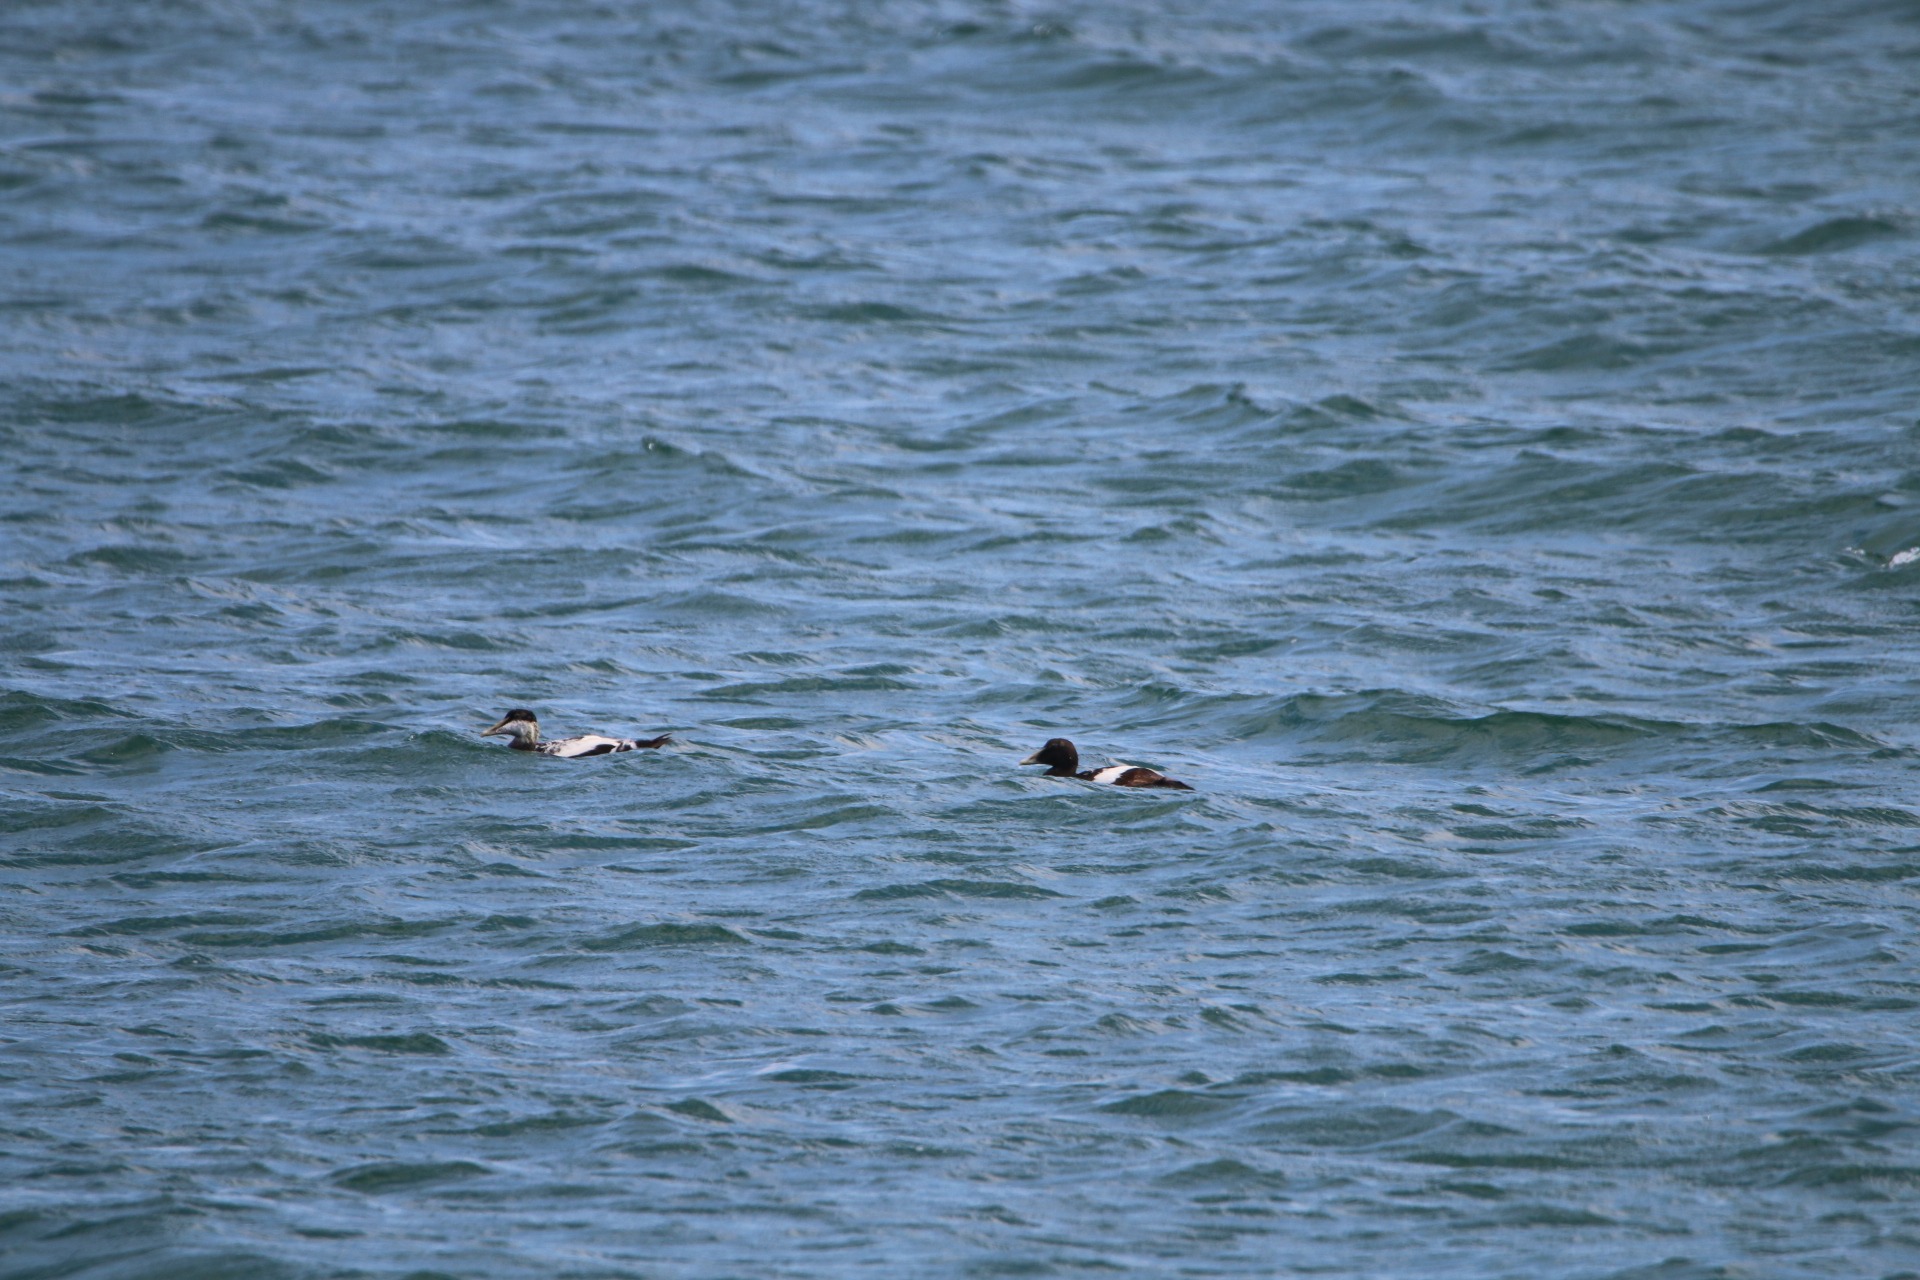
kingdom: Animalia
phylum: Chordata
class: Aves
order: Anseriformes
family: Anatidae
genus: Somateria
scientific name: Somateria mollissima
